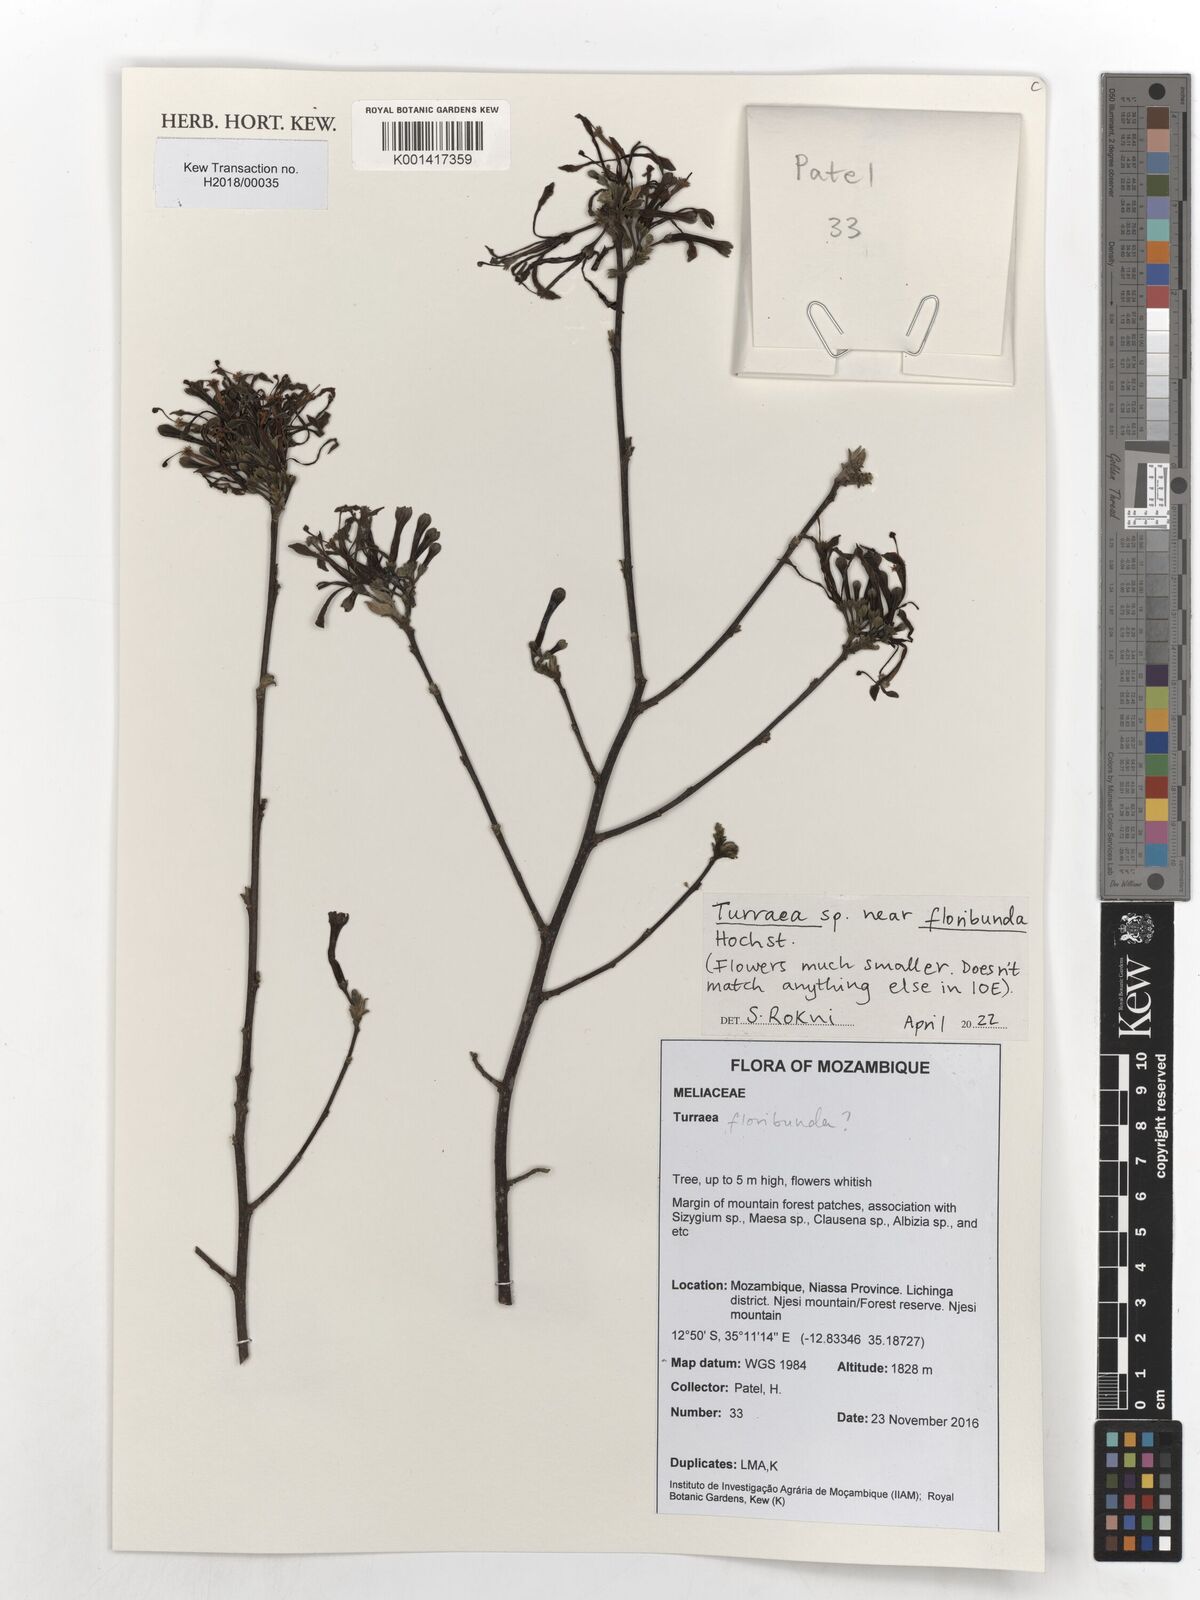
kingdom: Plantae
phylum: Tracheophyta
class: Magnoliopsida
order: Sapindales
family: Meliaceae
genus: Turraea
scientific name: Turraea floribunda
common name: Honeysuckle tree
